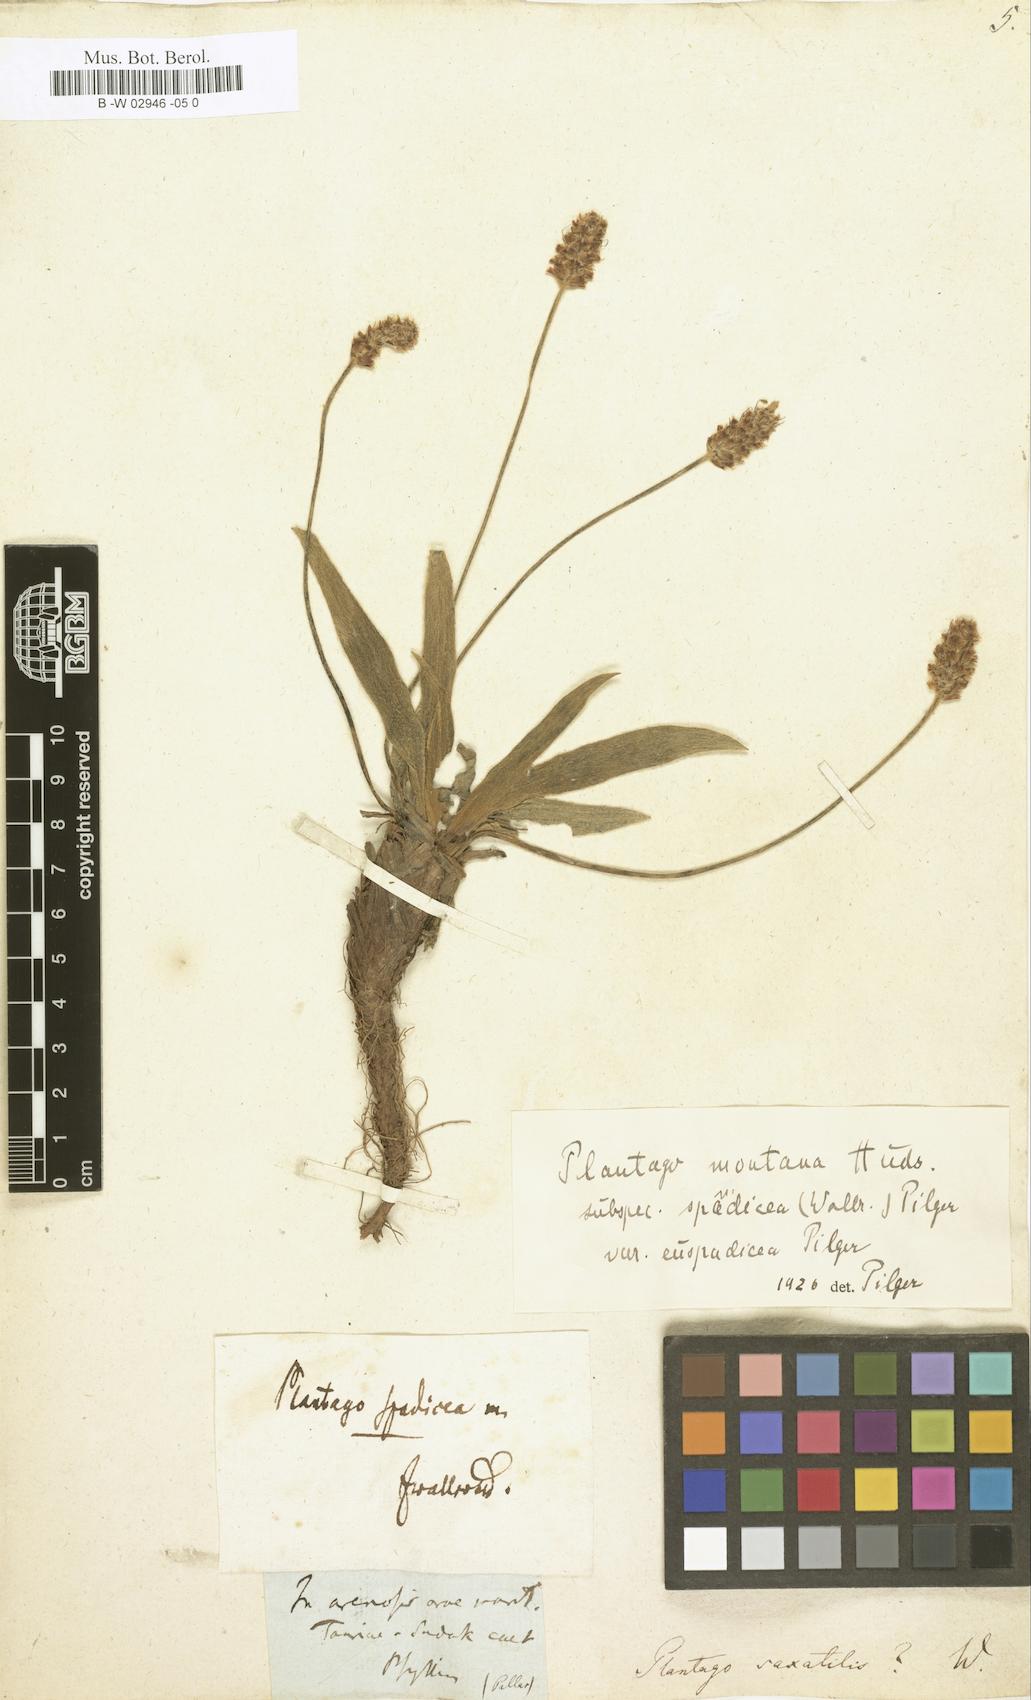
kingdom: Plantae
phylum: Tracheophyta
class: Magnoliopsida
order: Lamiales
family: Plantaginaceae
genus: Plantago
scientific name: Plantago atrata
